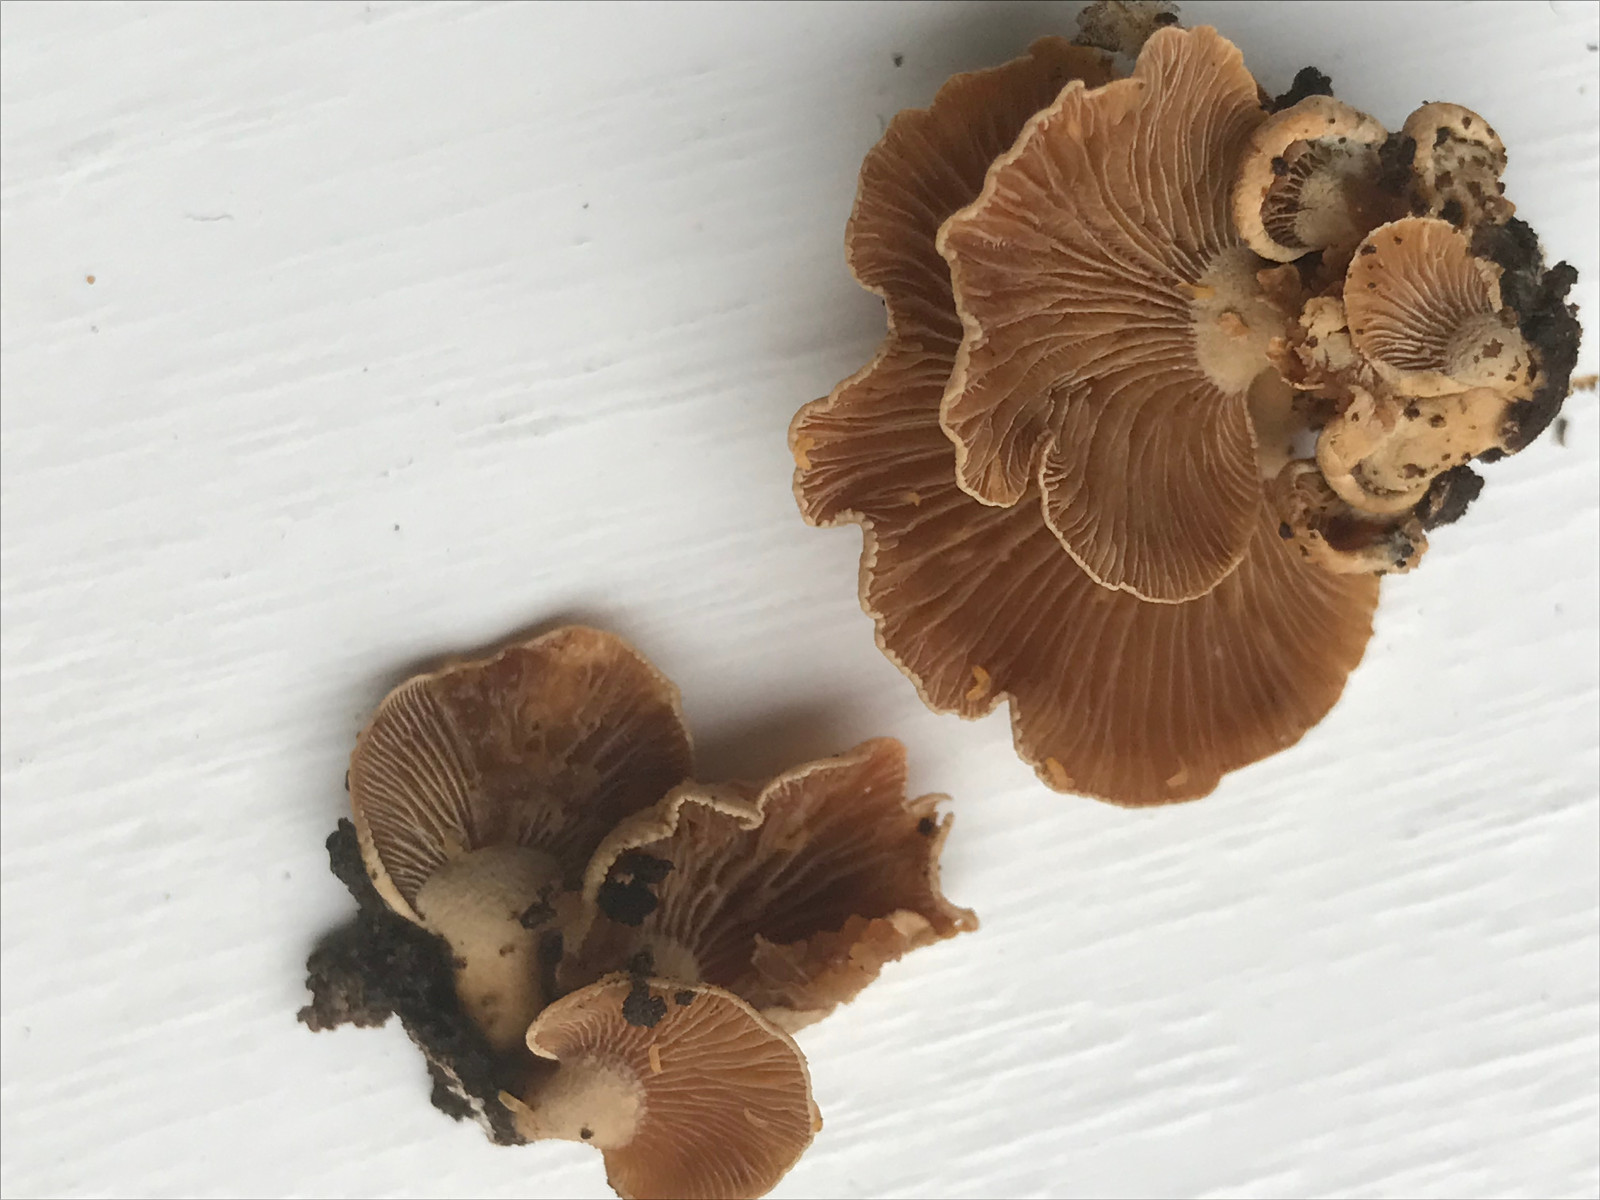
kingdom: Fungi
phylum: Basidiomycota
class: Agaricomycetes
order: Agaricales
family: Mycenaceae
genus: Panellus
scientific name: Panellus stipticus
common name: kliddet epaulethat
